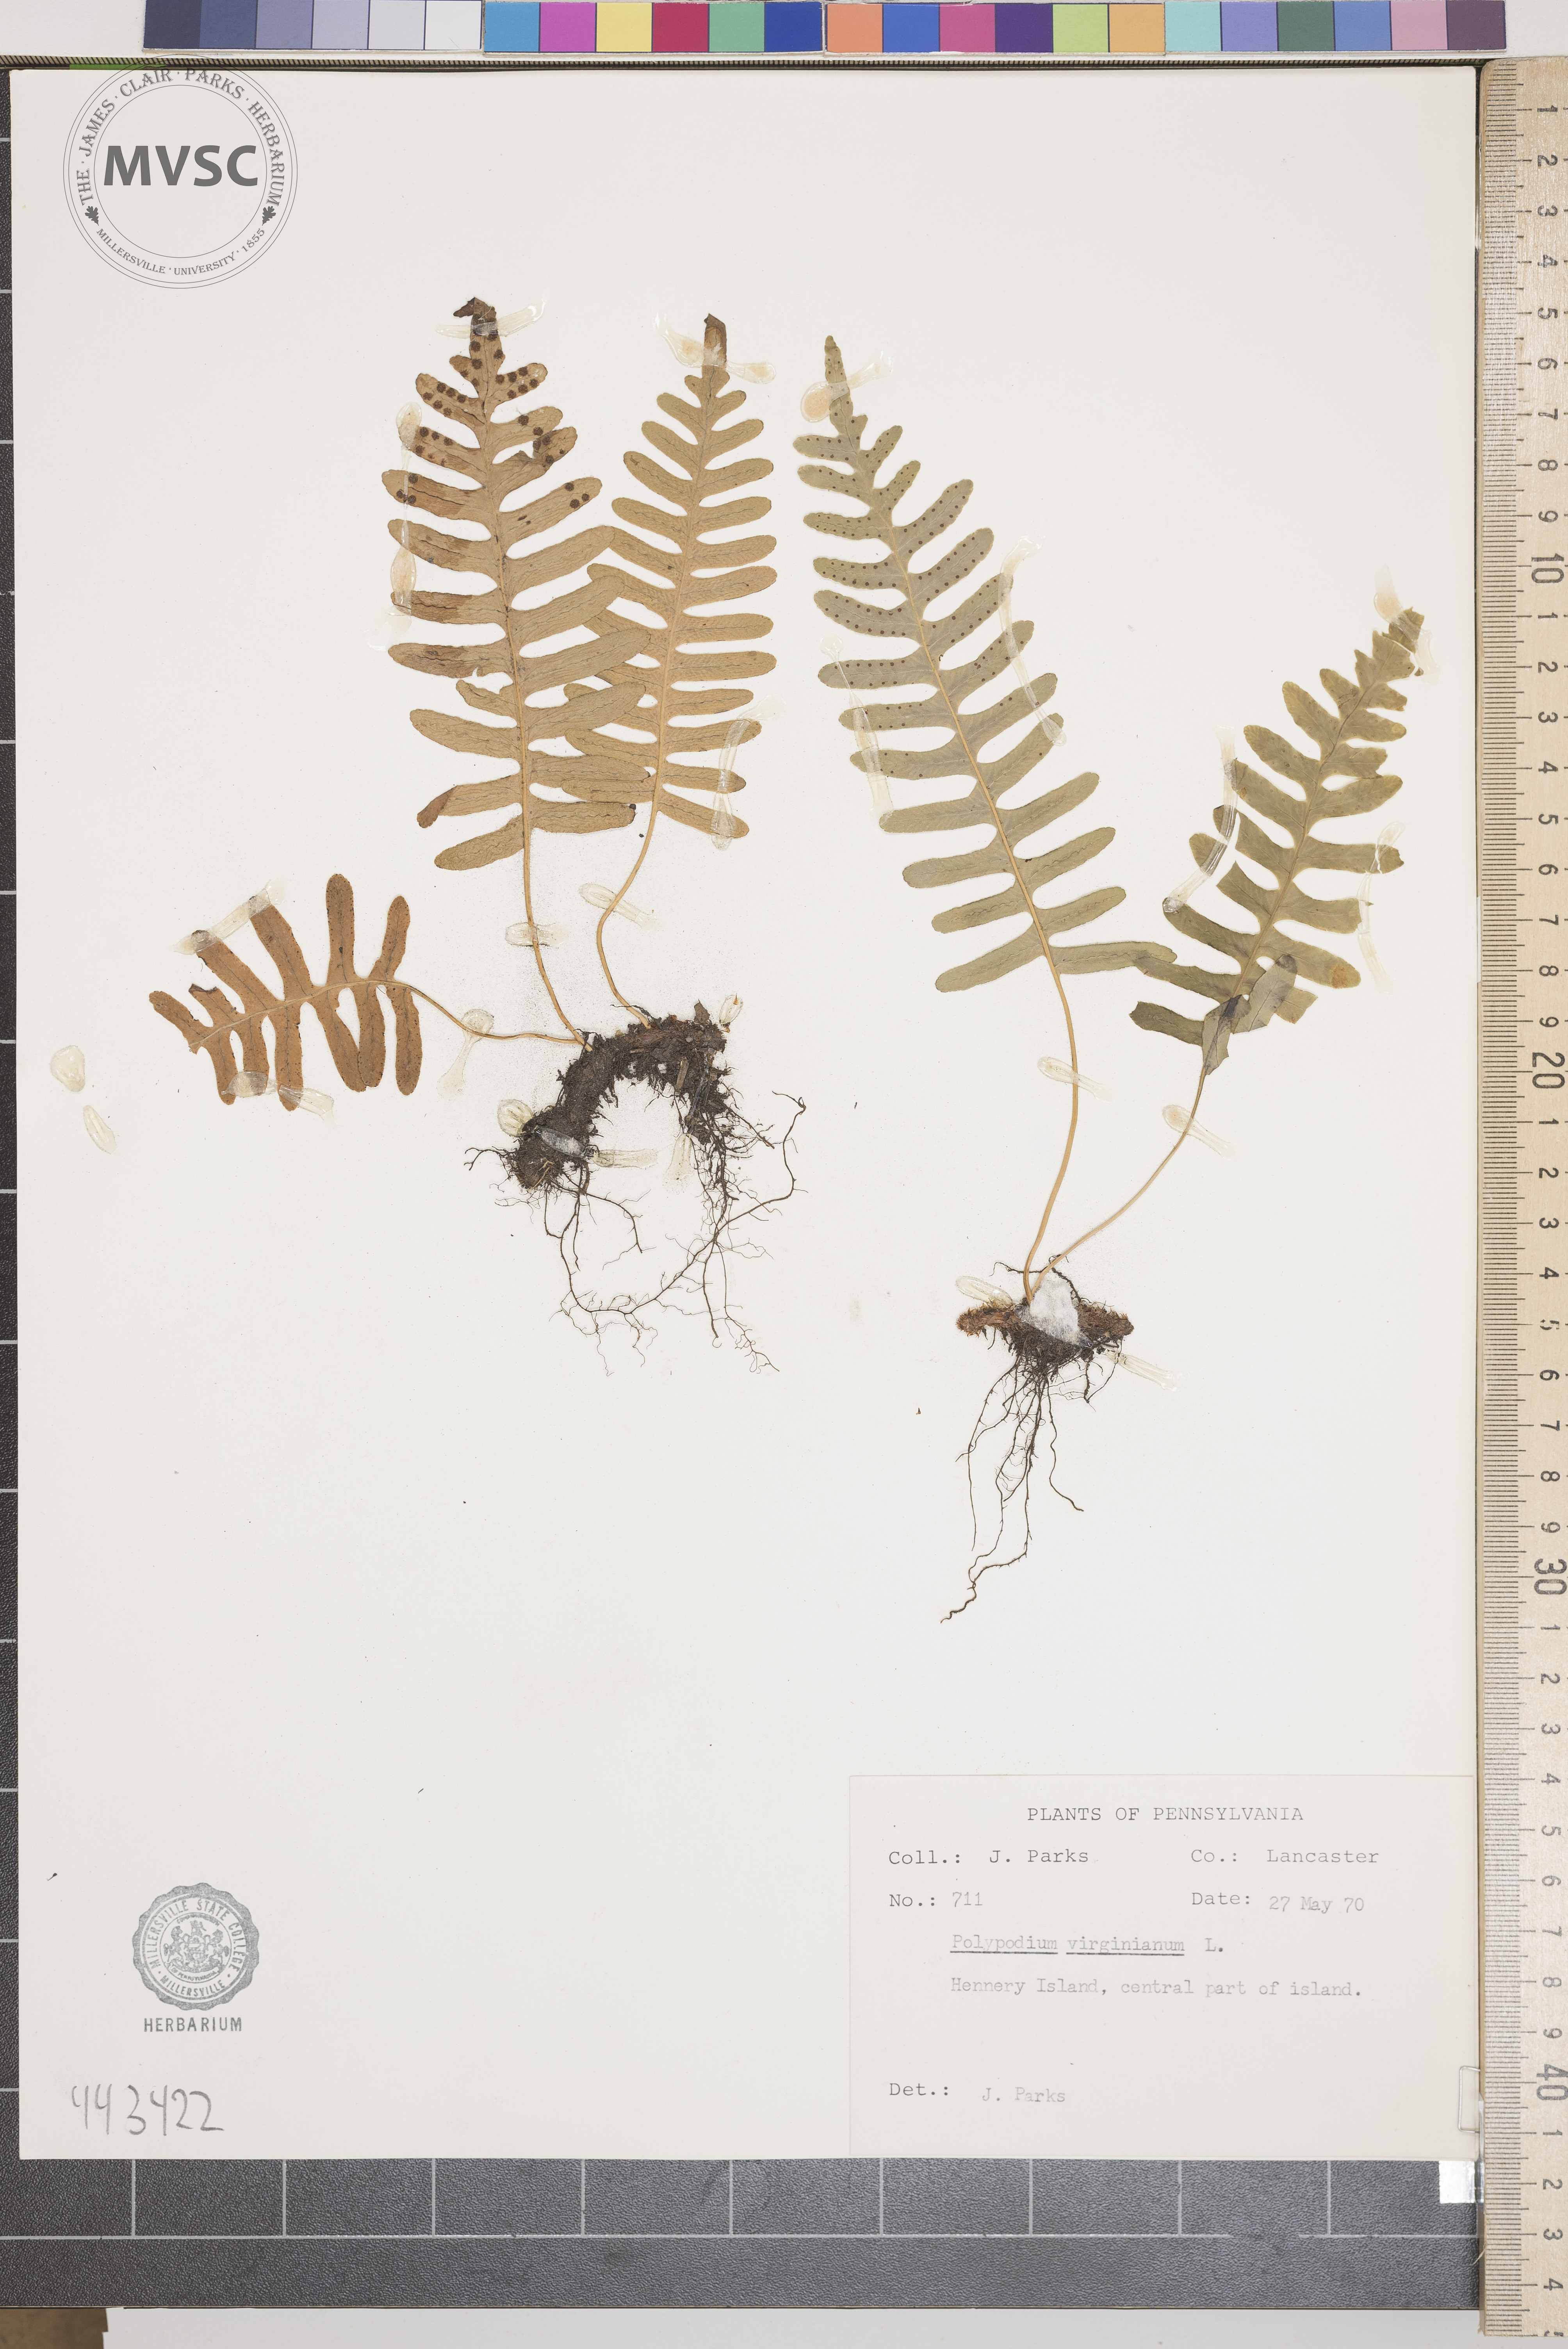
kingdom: Plantae
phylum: Tracheophyta
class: Polypodiopsida
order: Polypodiales
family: Polypodiaceae
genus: Polypodium
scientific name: Polypodium virginianum
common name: American wall fern
